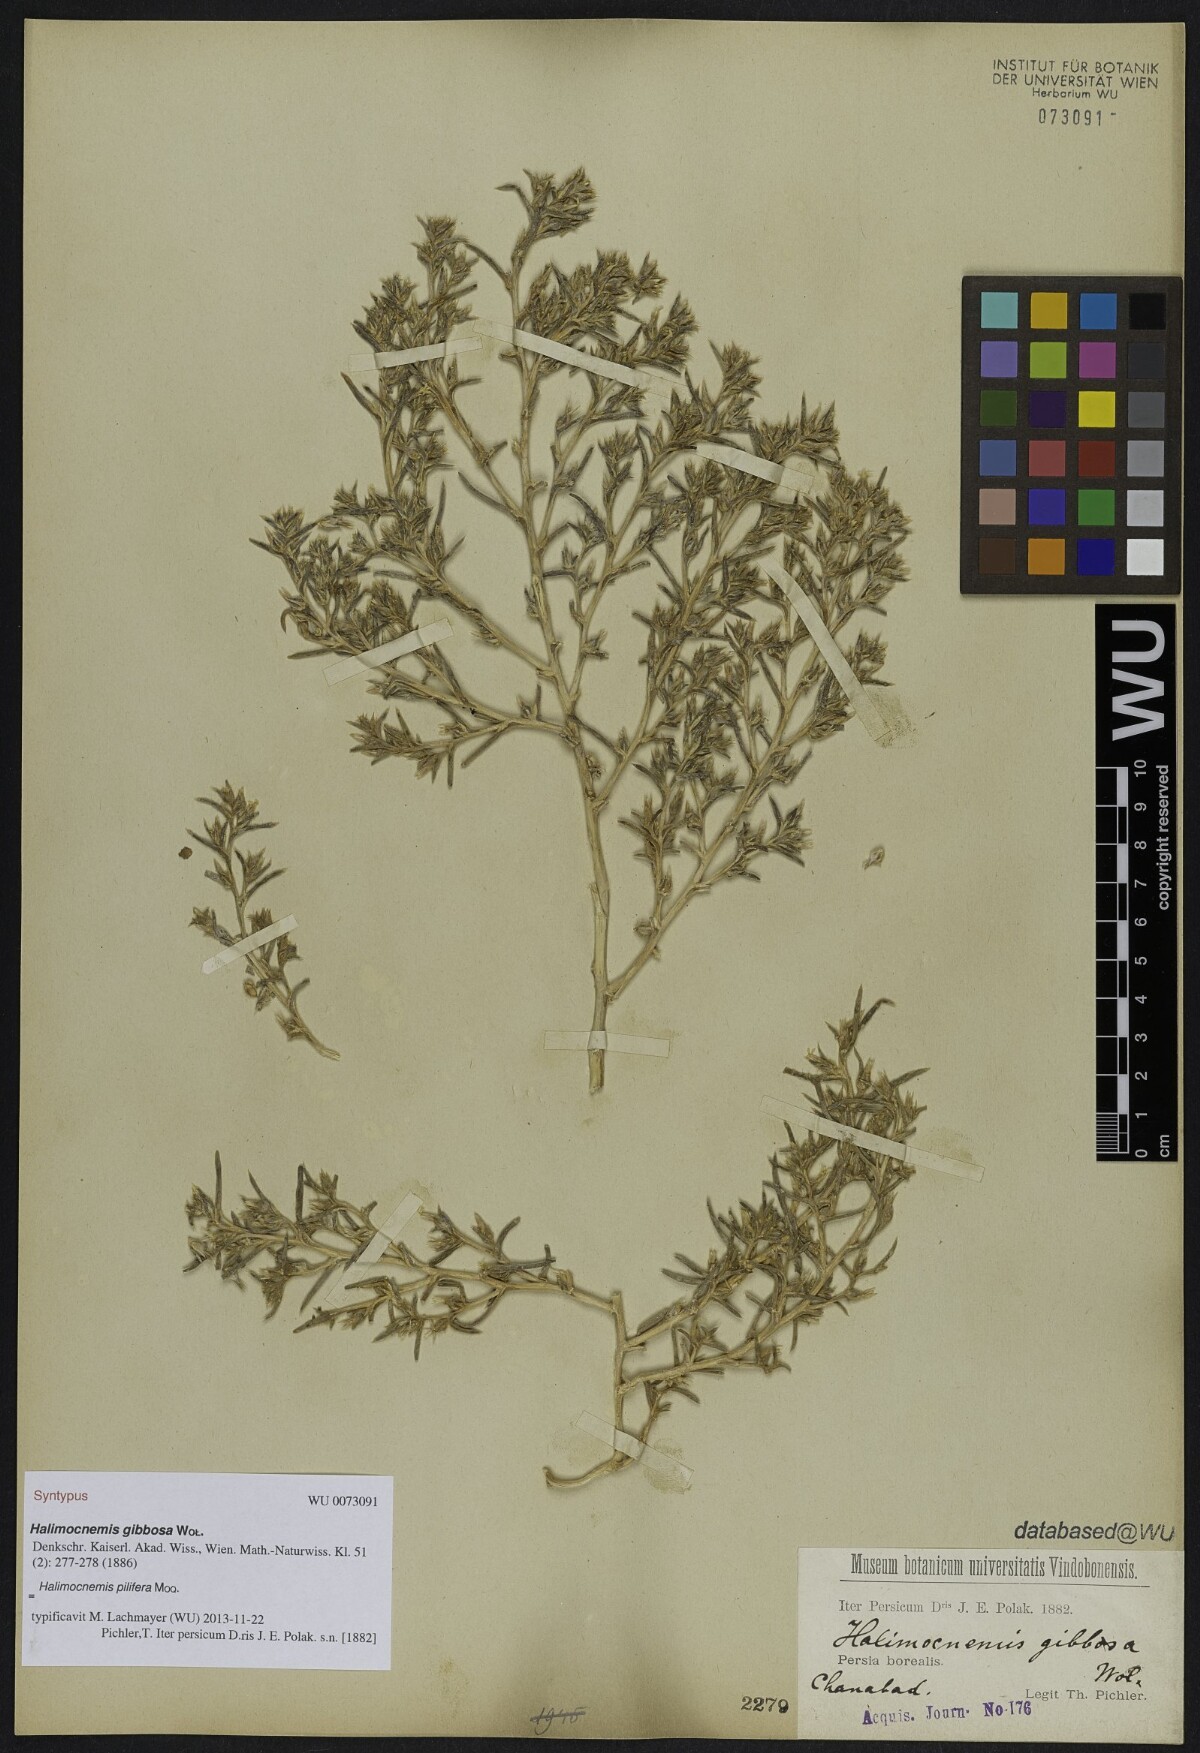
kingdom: Plantae
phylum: Tracheophyta
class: Magnoliopsida
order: Caryophyllales
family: Amaranthaceae
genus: Halimocnemis
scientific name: Halimocnemis pilifera
